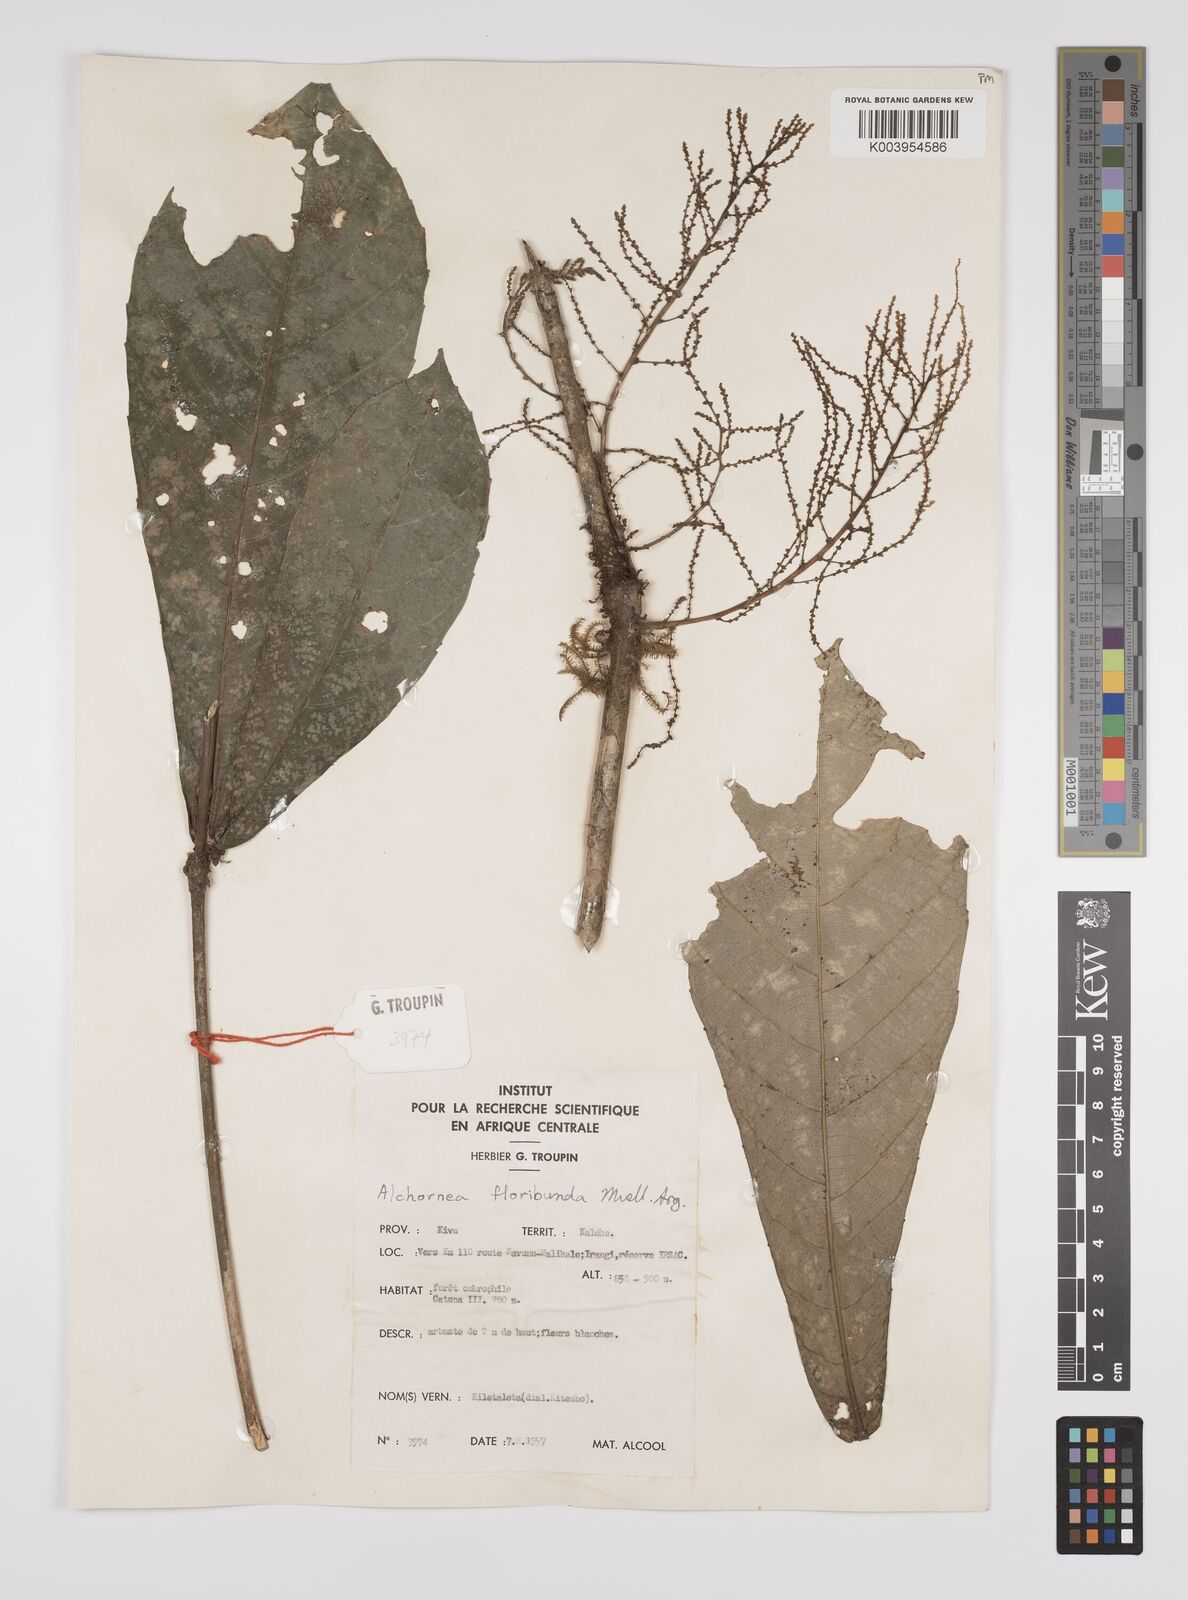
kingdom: Plantae
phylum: Tracheophyta
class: Magnoliopsida
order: Malpighiales
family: Euphorbiaceae
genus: Alchornea
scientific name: Alchornea floribunda
